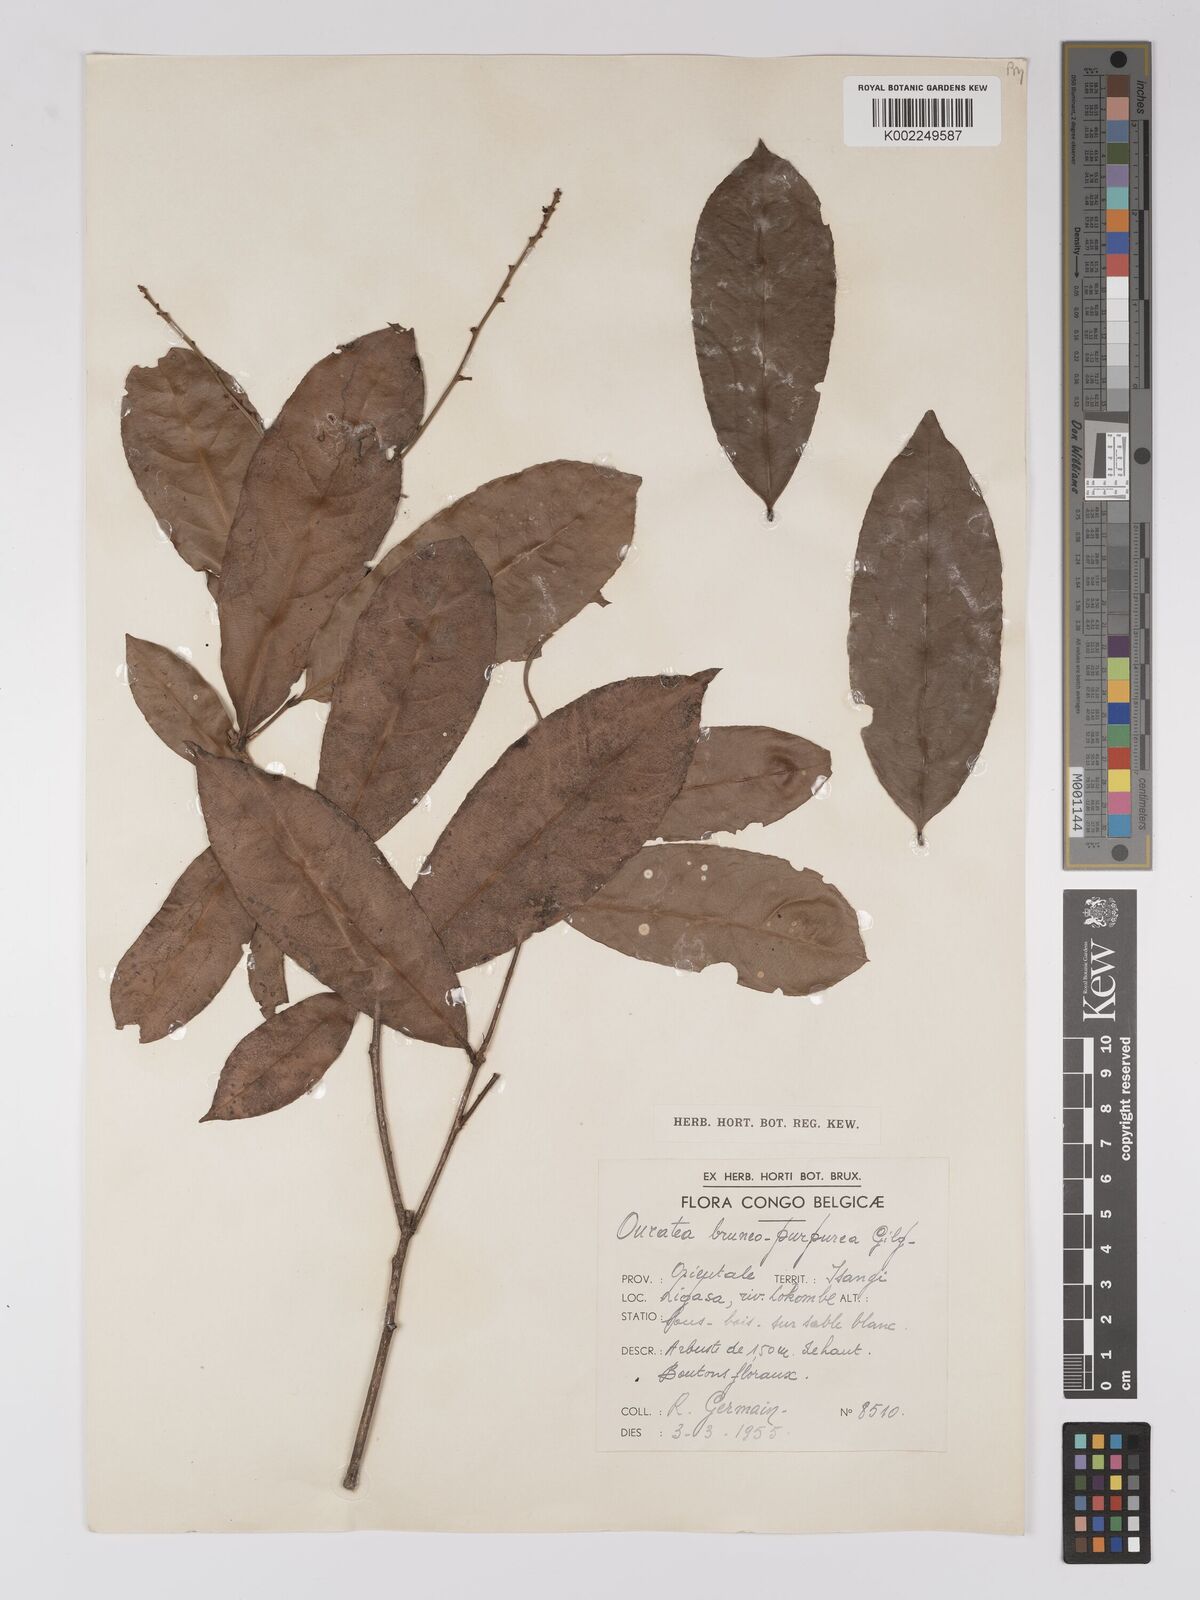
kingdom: Plantae
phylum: Tracheophyta
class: Magnoliopsida
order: Malpighiales
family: Ochnaceae
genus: Campylospermum
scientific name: Campylospermum reticulatum
